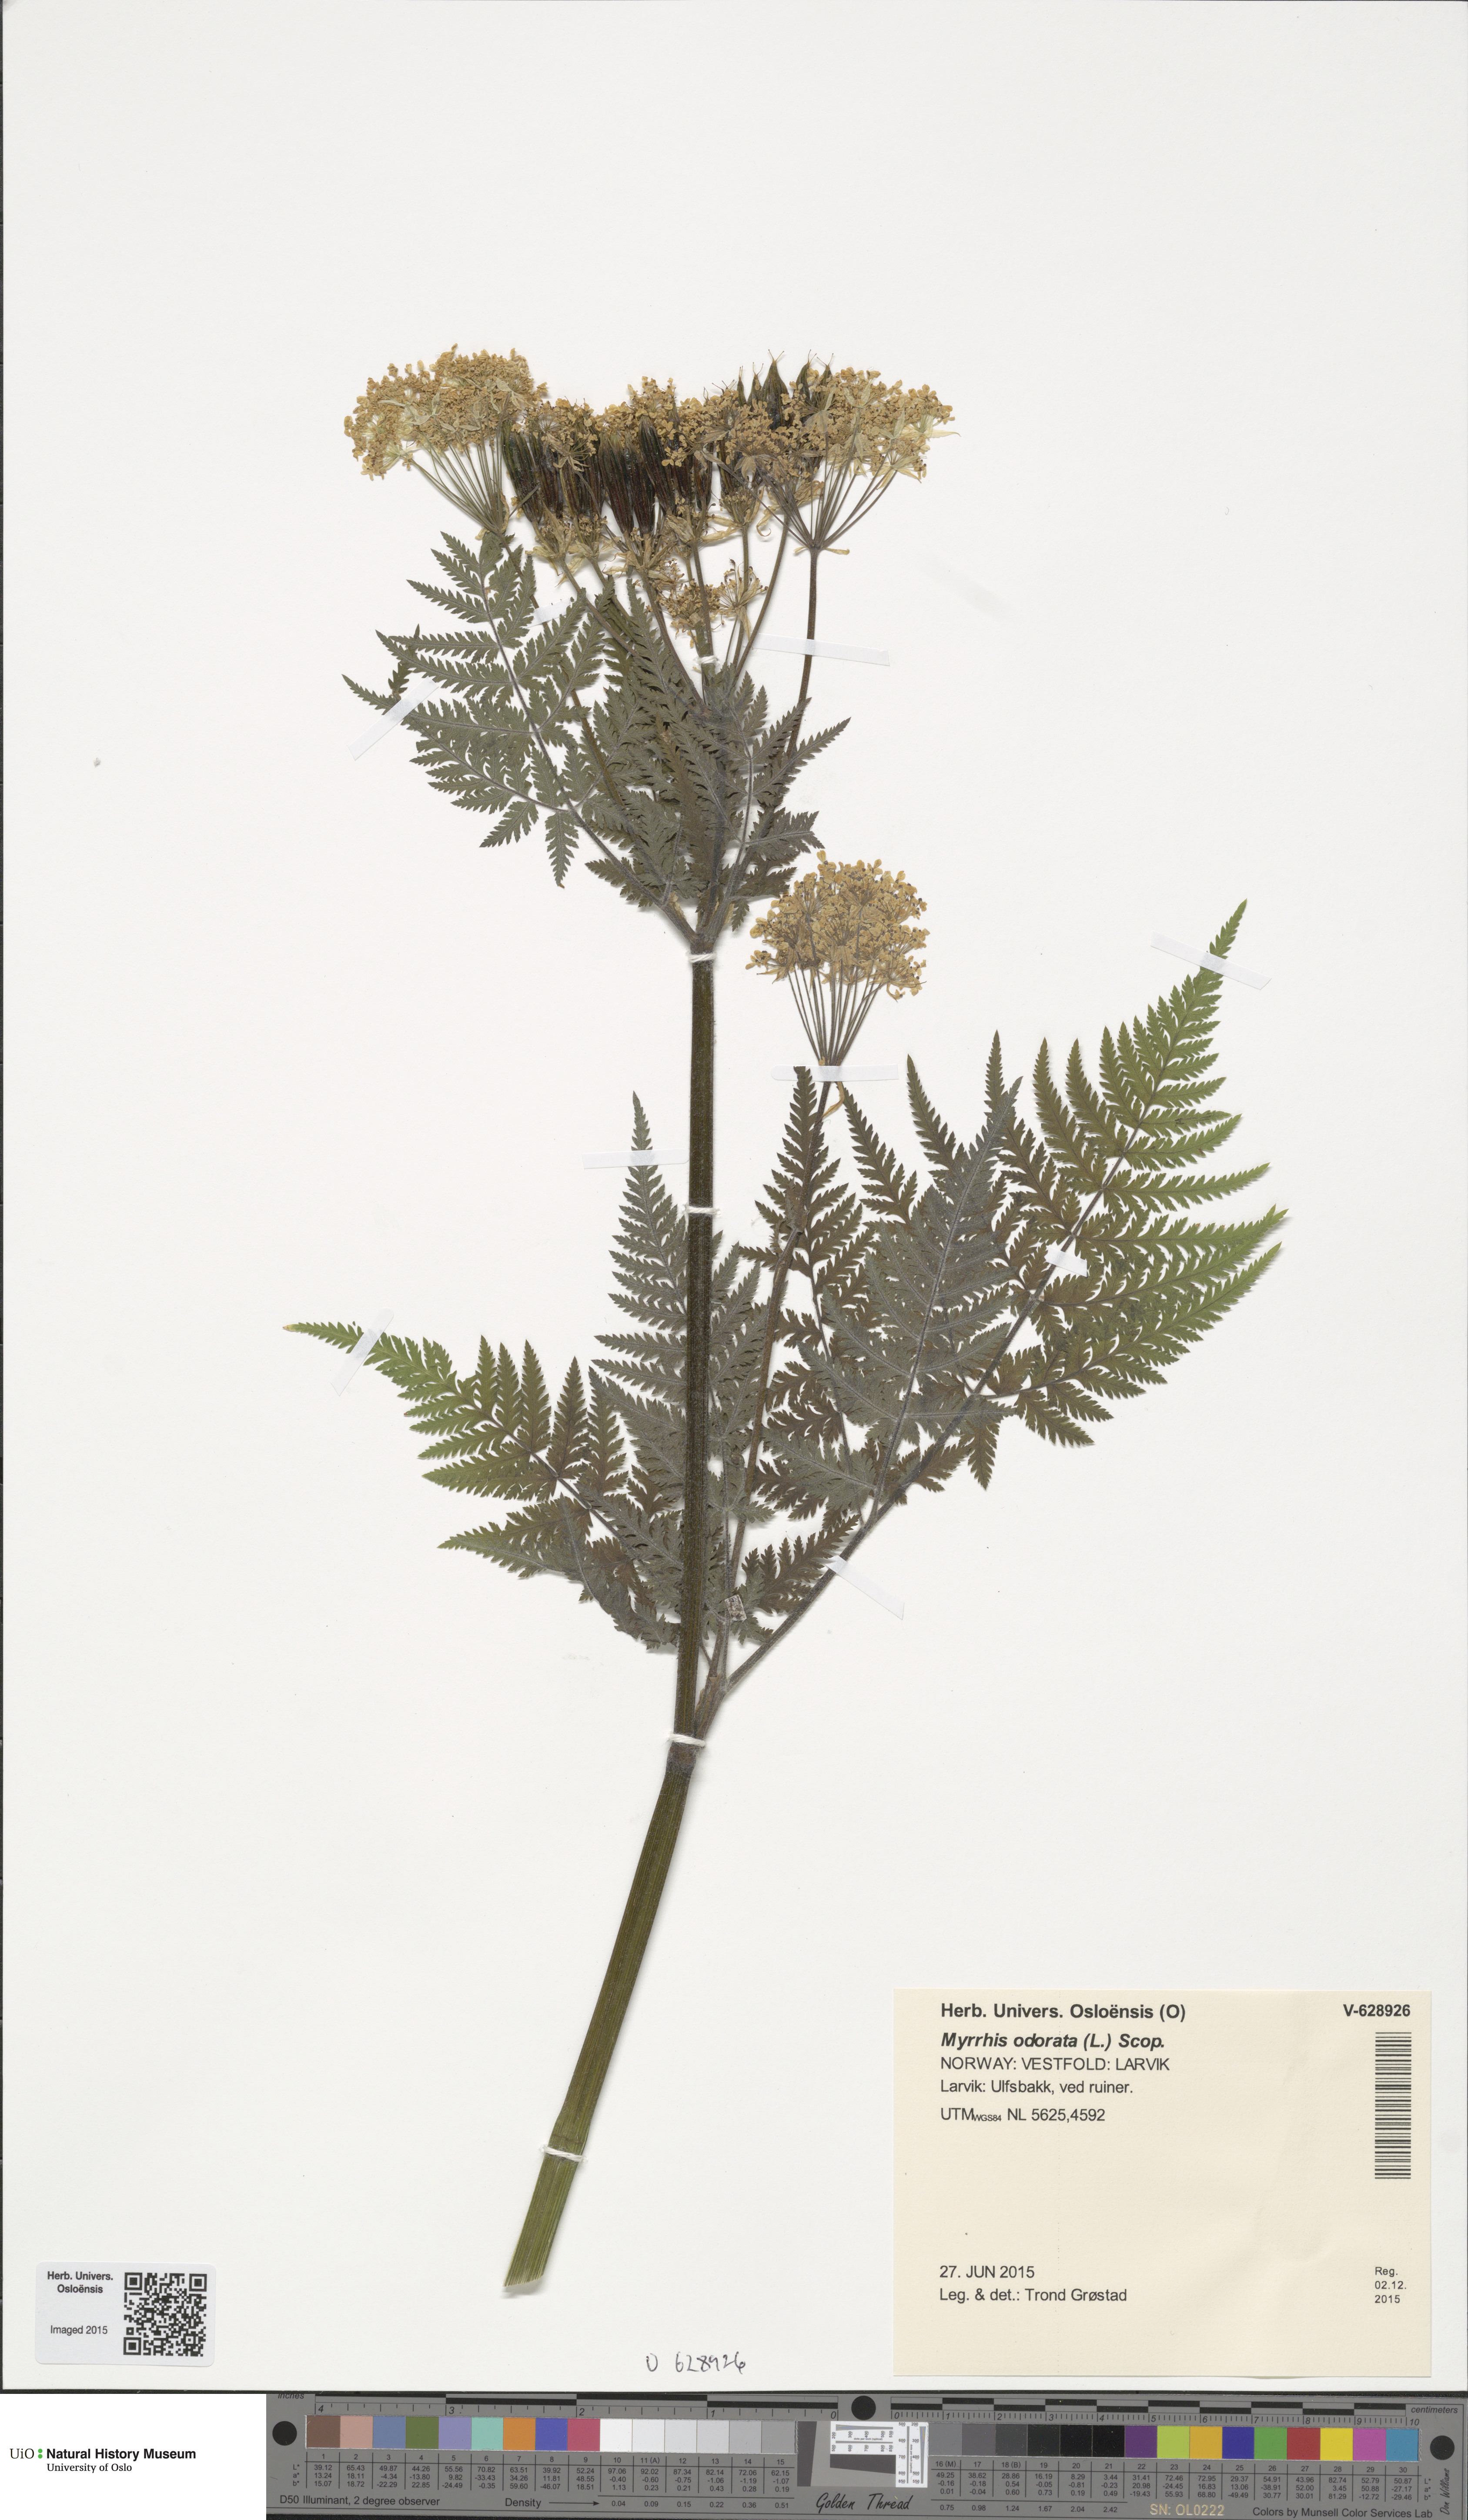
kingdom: Plantae
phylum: Tracheophyta
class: Magnoliopsida
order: Apiales
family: Apiaceae
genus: Myrrhis
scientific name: Myrrhis odorata
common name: Sweet cicely
